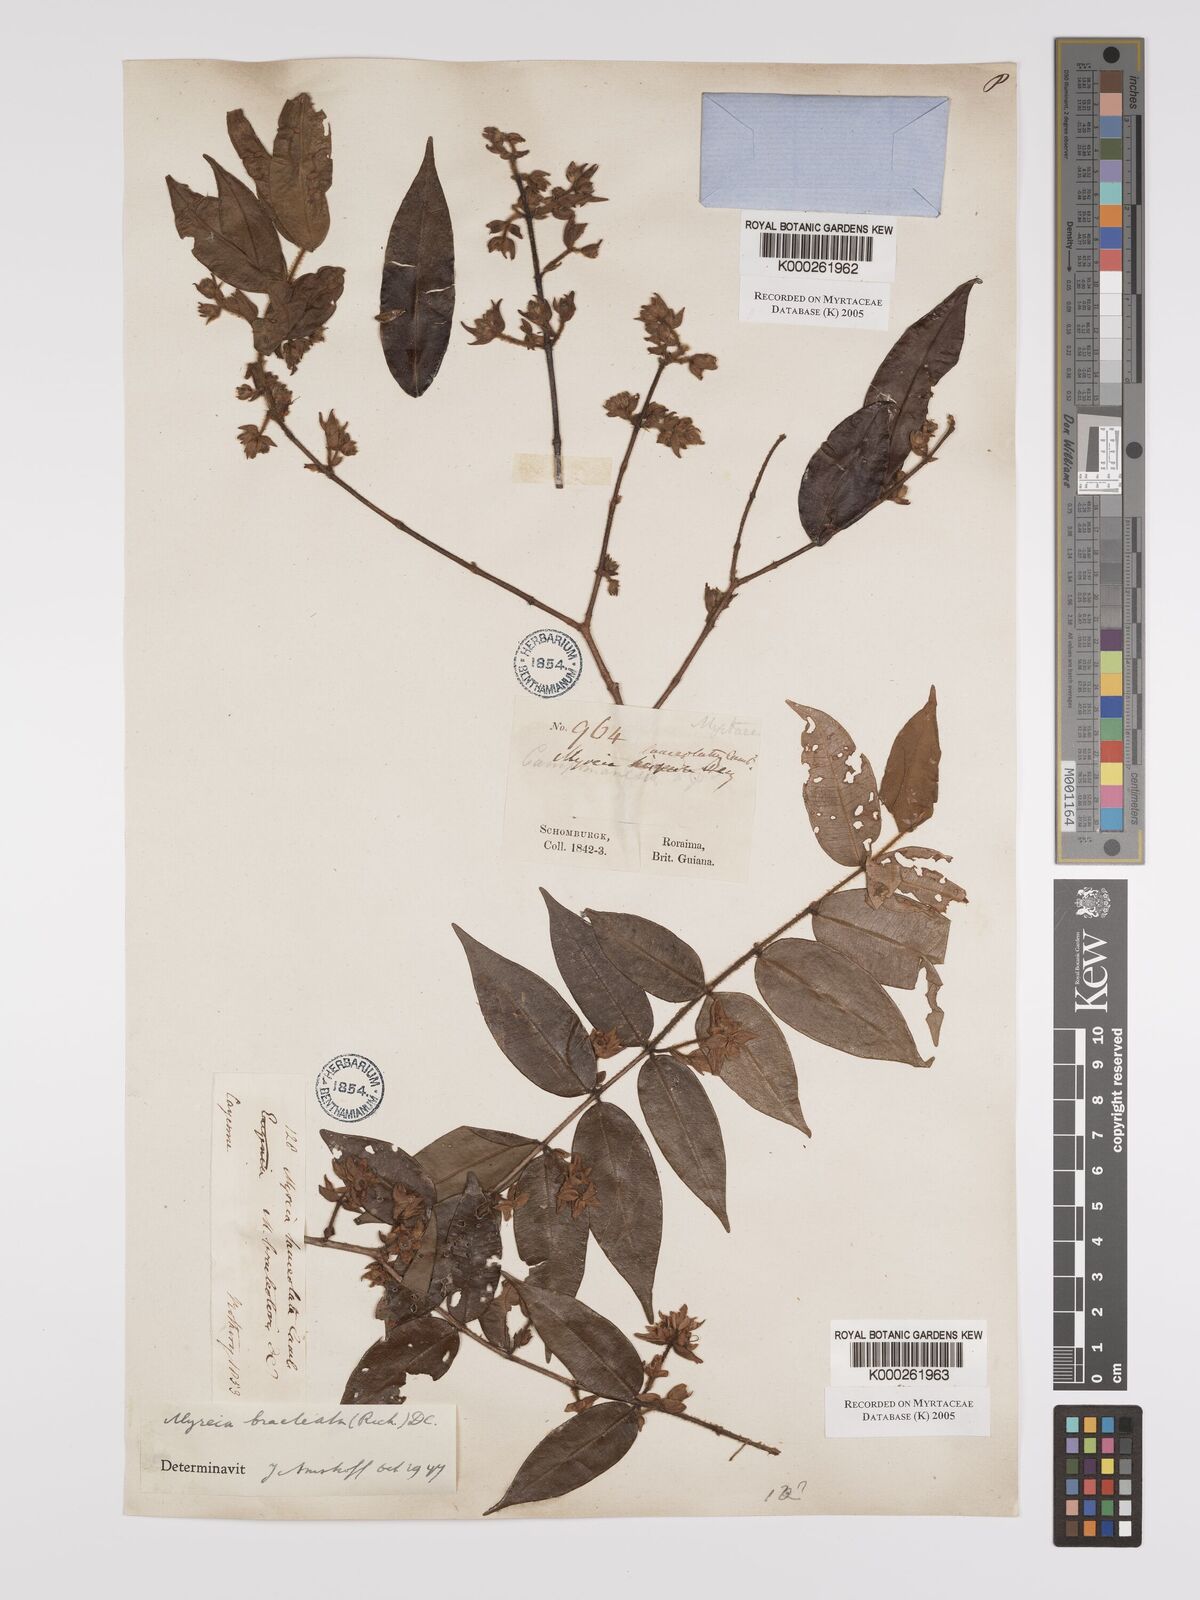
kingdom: Plantae
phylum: Tracheophyta
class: Magnoliopsida
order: Myrtales
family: Myrtaceae
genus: Myrcia
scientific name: Myrcia bracteata
